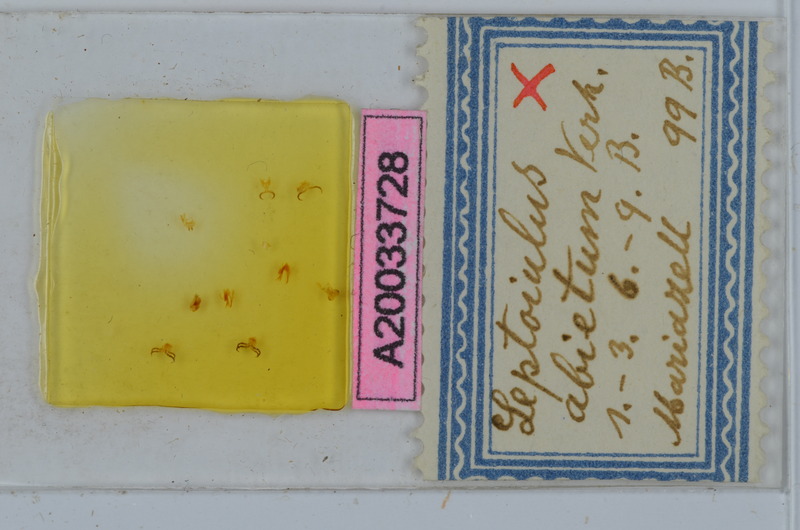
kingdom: Animalia
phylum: Arthropoda
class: Diplopoda
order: Julida
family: Julidae
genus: Leptoiulus
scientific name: Leptoiulus abietum
